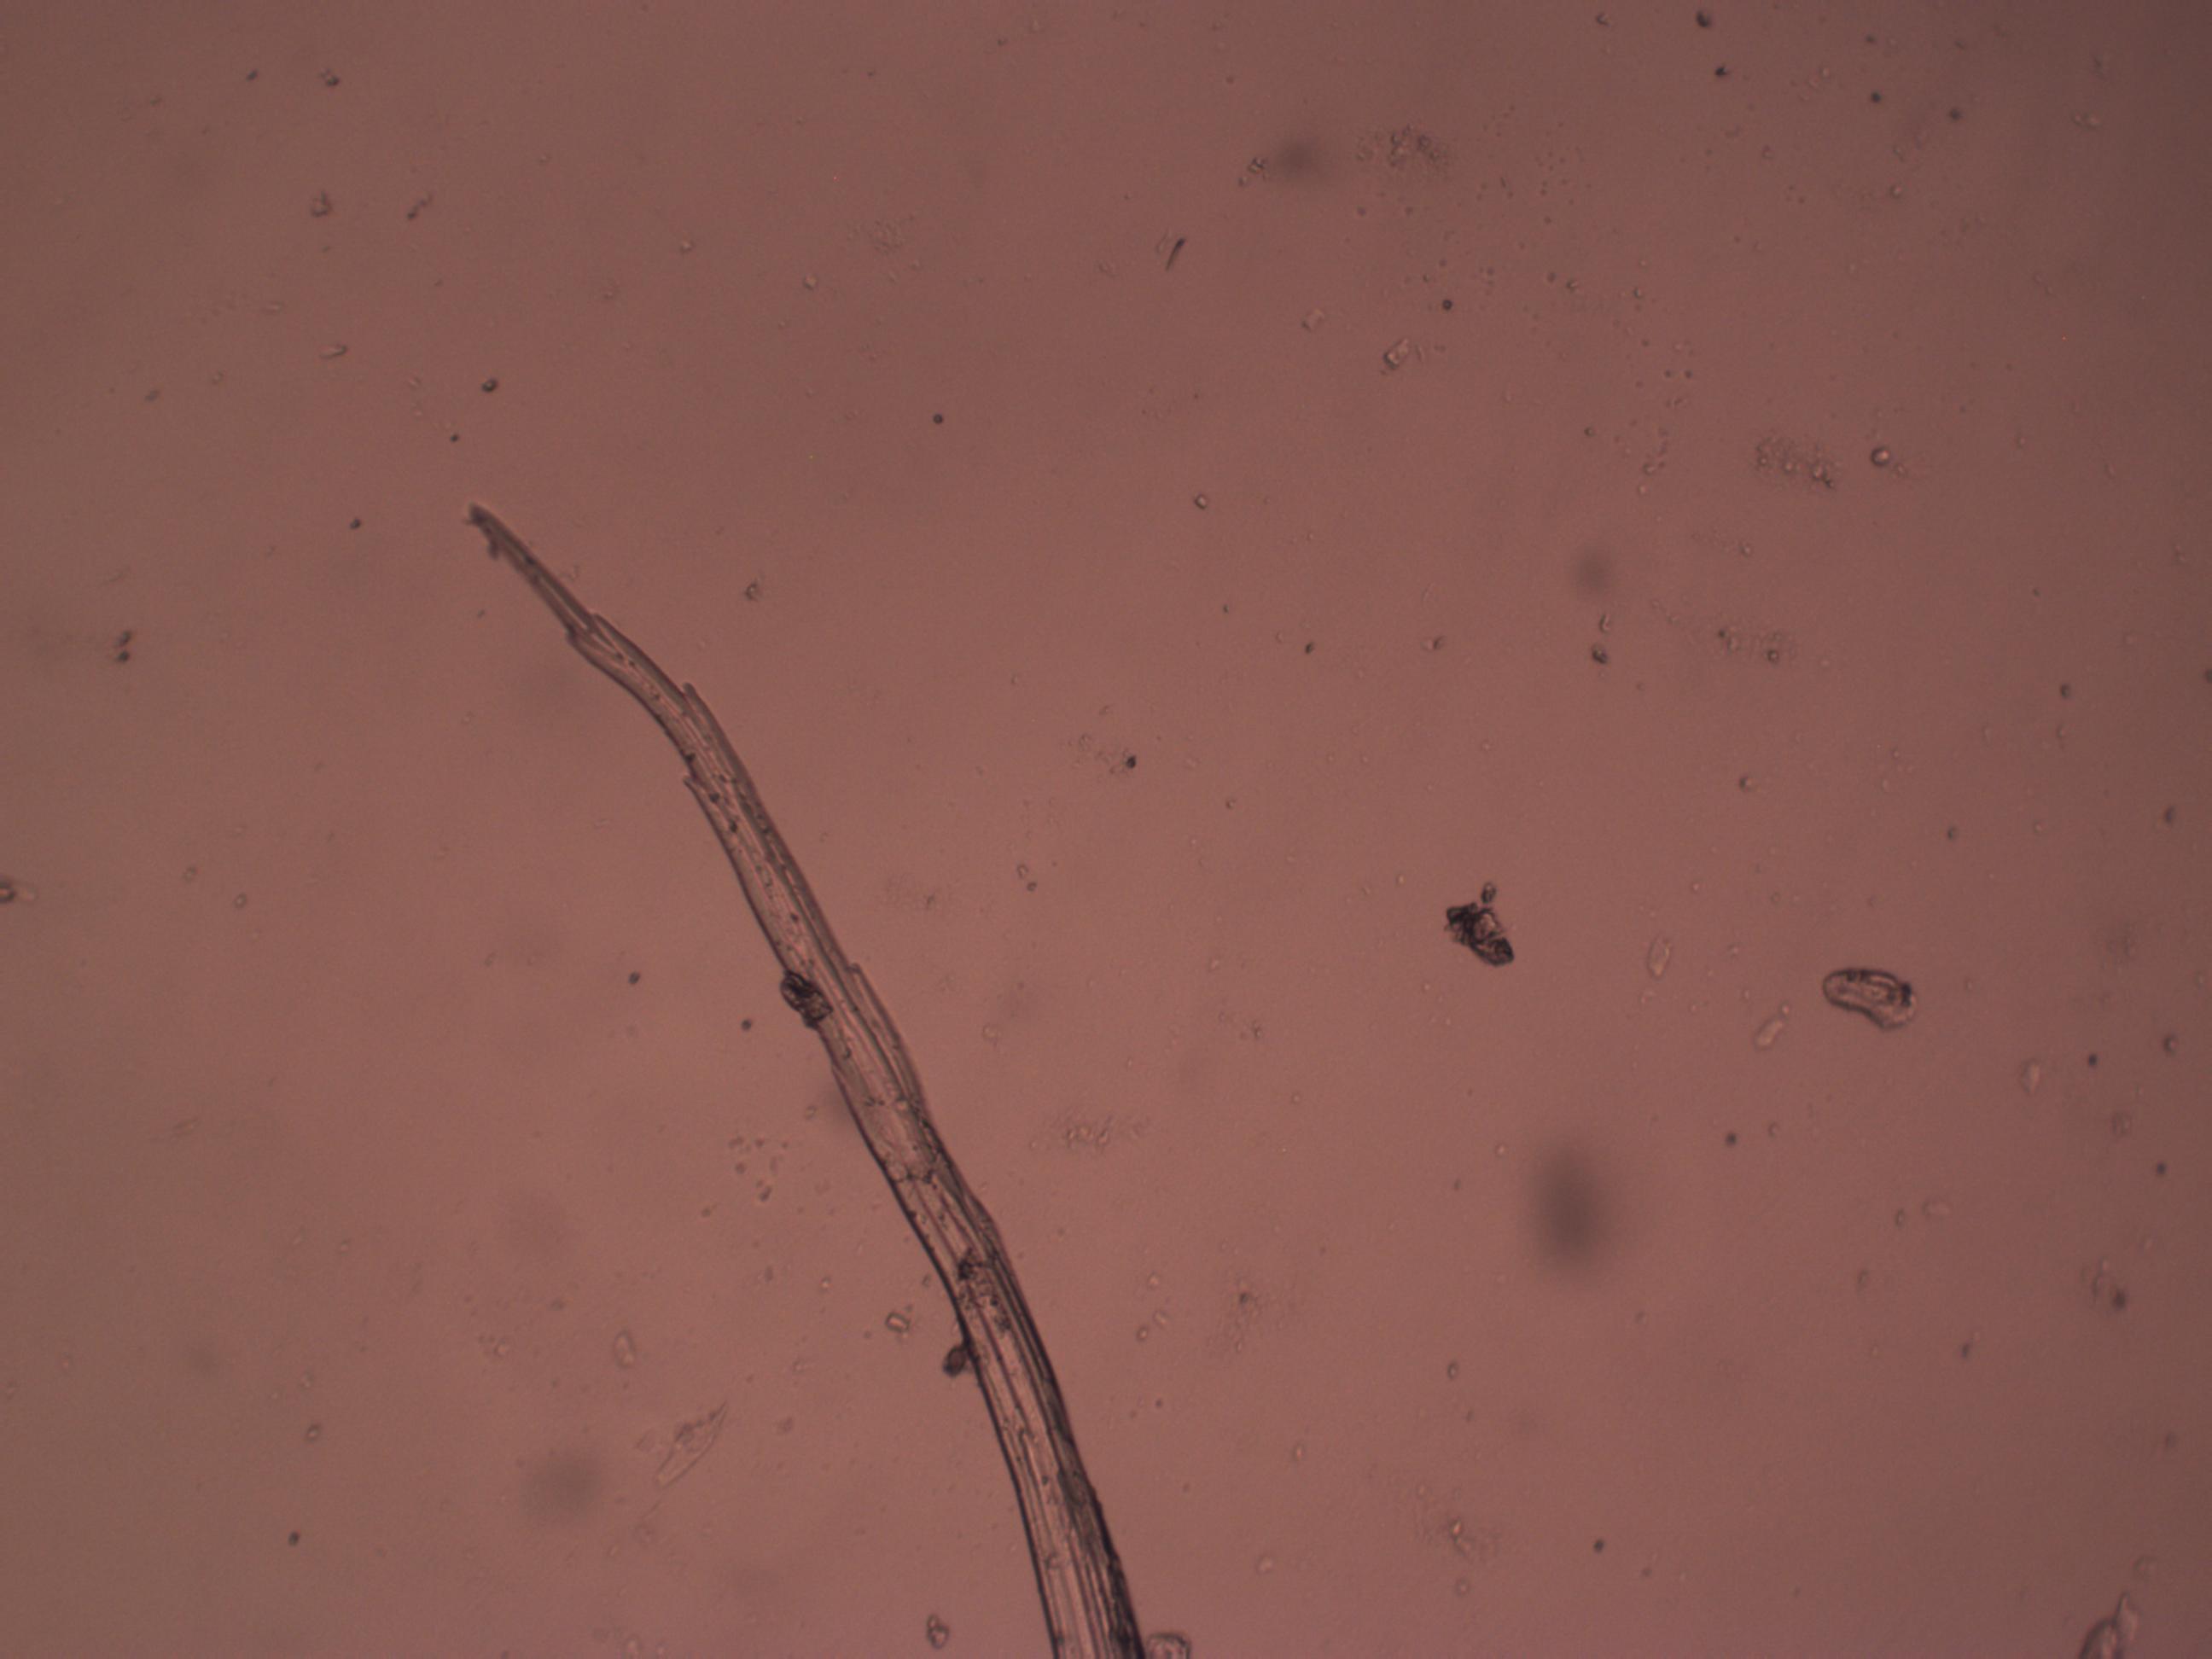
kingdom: Plantae
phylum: Bryophyta
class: Bryopsida
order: Grimmiales
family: Grimmiaceae
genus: Bucklandiella
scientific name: Bucklandiella heterosticha
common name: Sten-børstemos
